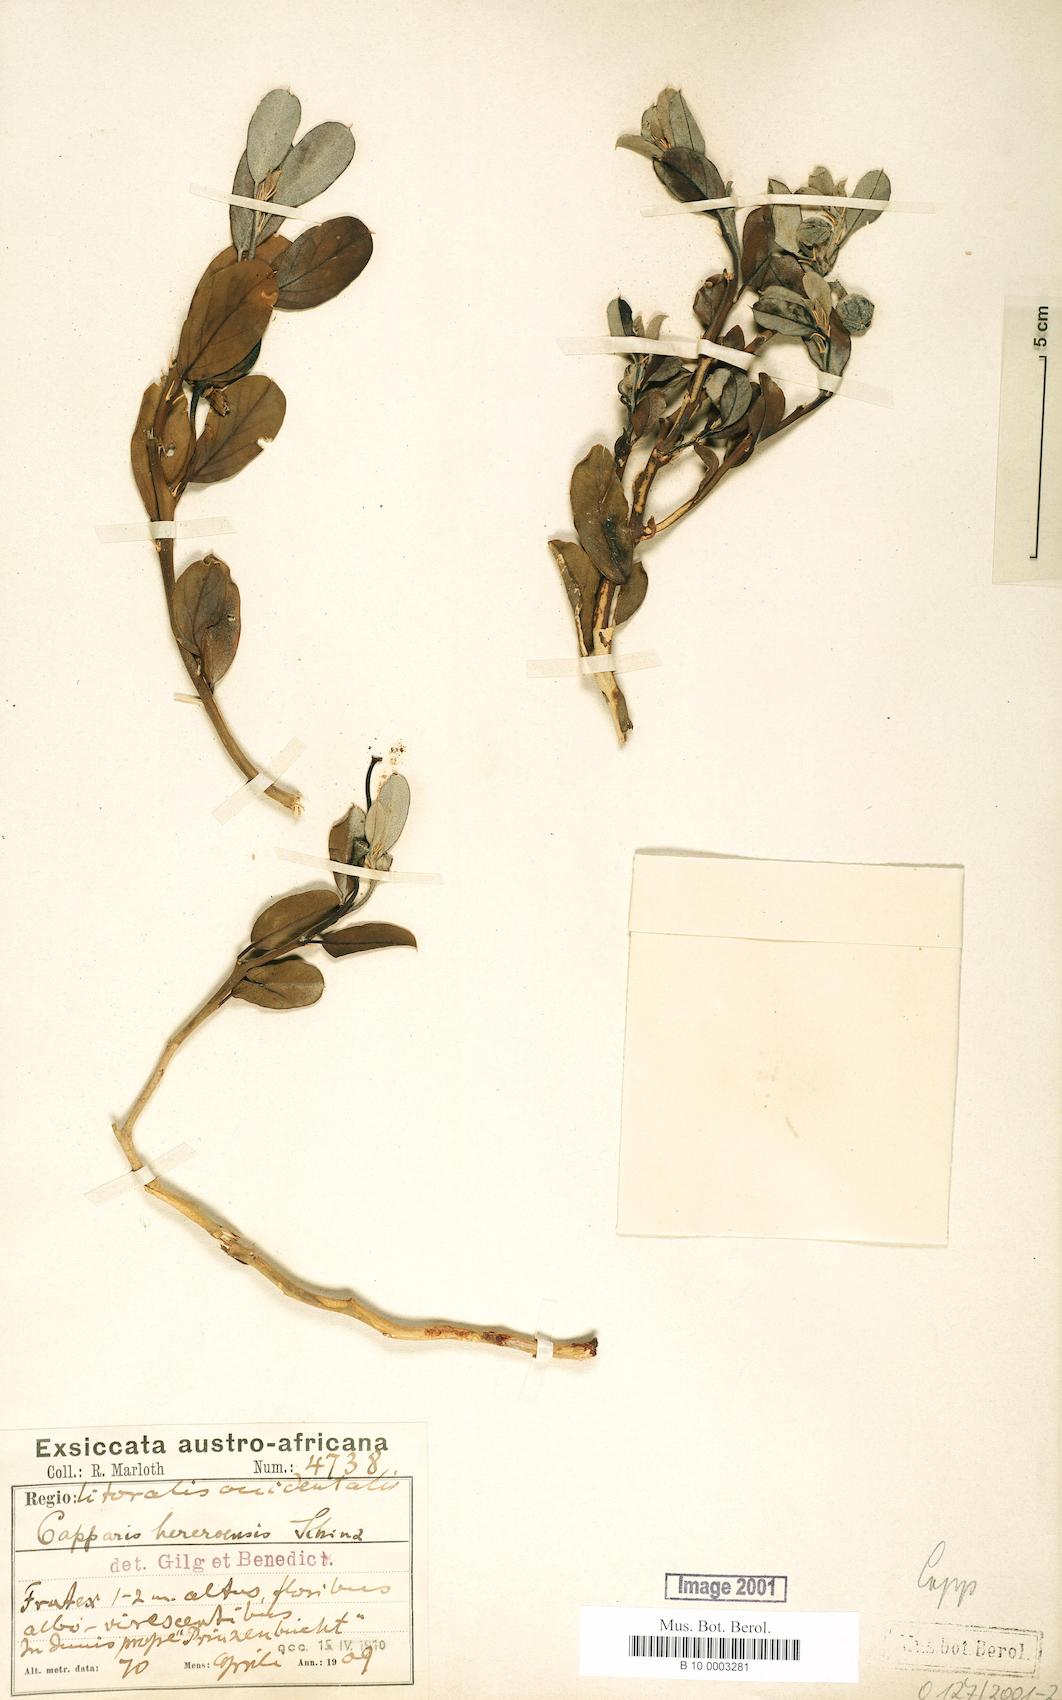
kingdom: Plantae
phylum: Tracheophyta
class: Magnoliopsida
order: Brassicales
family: Capparaceae
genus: Capparis
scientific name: Capparis hereroensis
